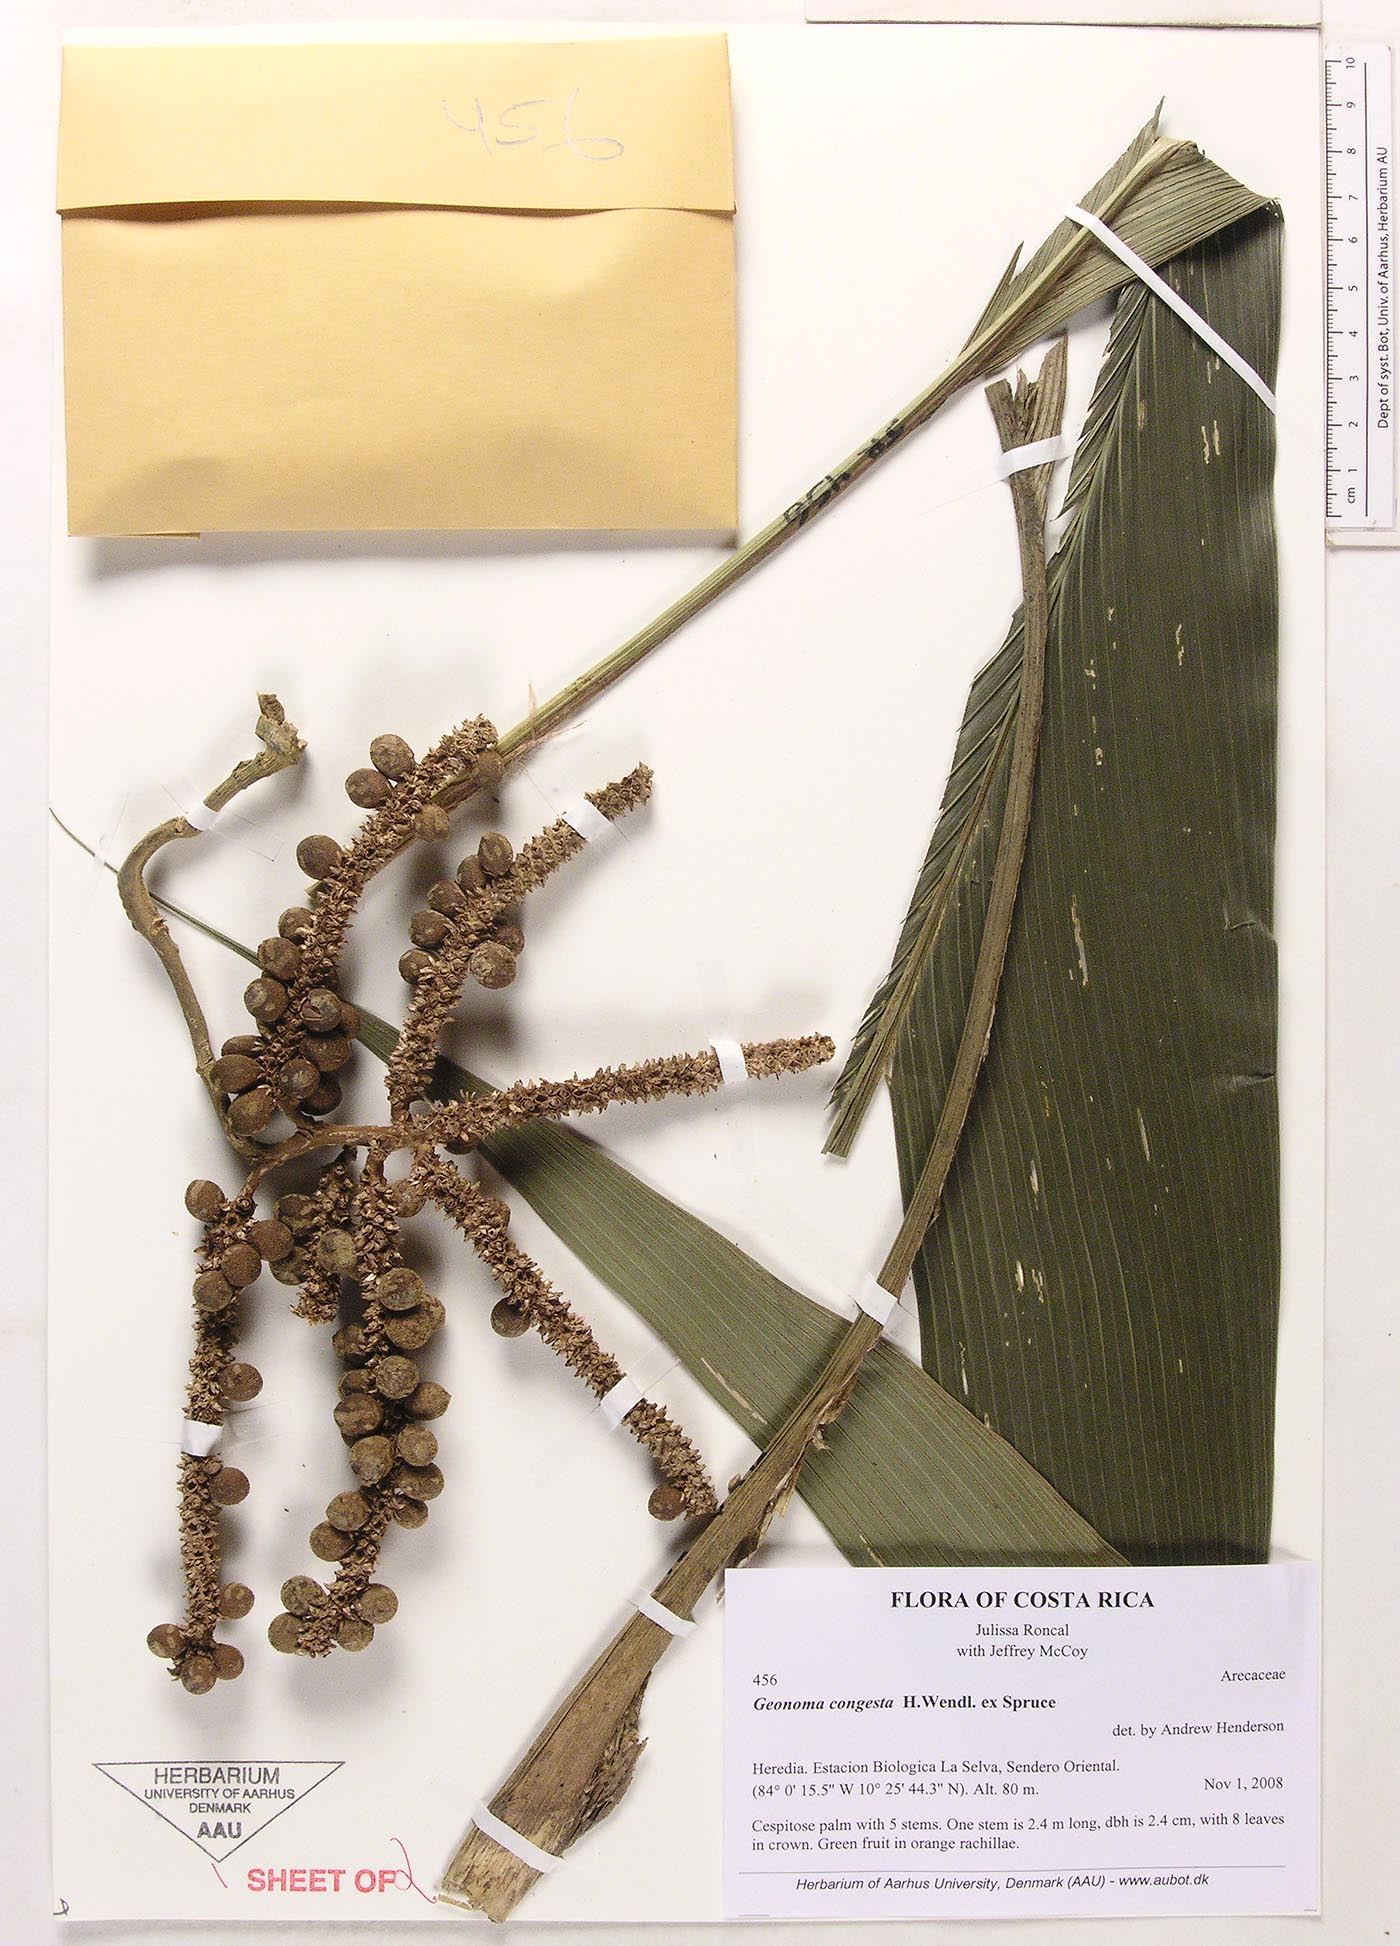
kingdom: Plantae
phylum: Tracheophyta
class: Liliopsida
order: Arecales
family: Arecaceae
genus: Geonoma
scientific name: Geonoma congesta
